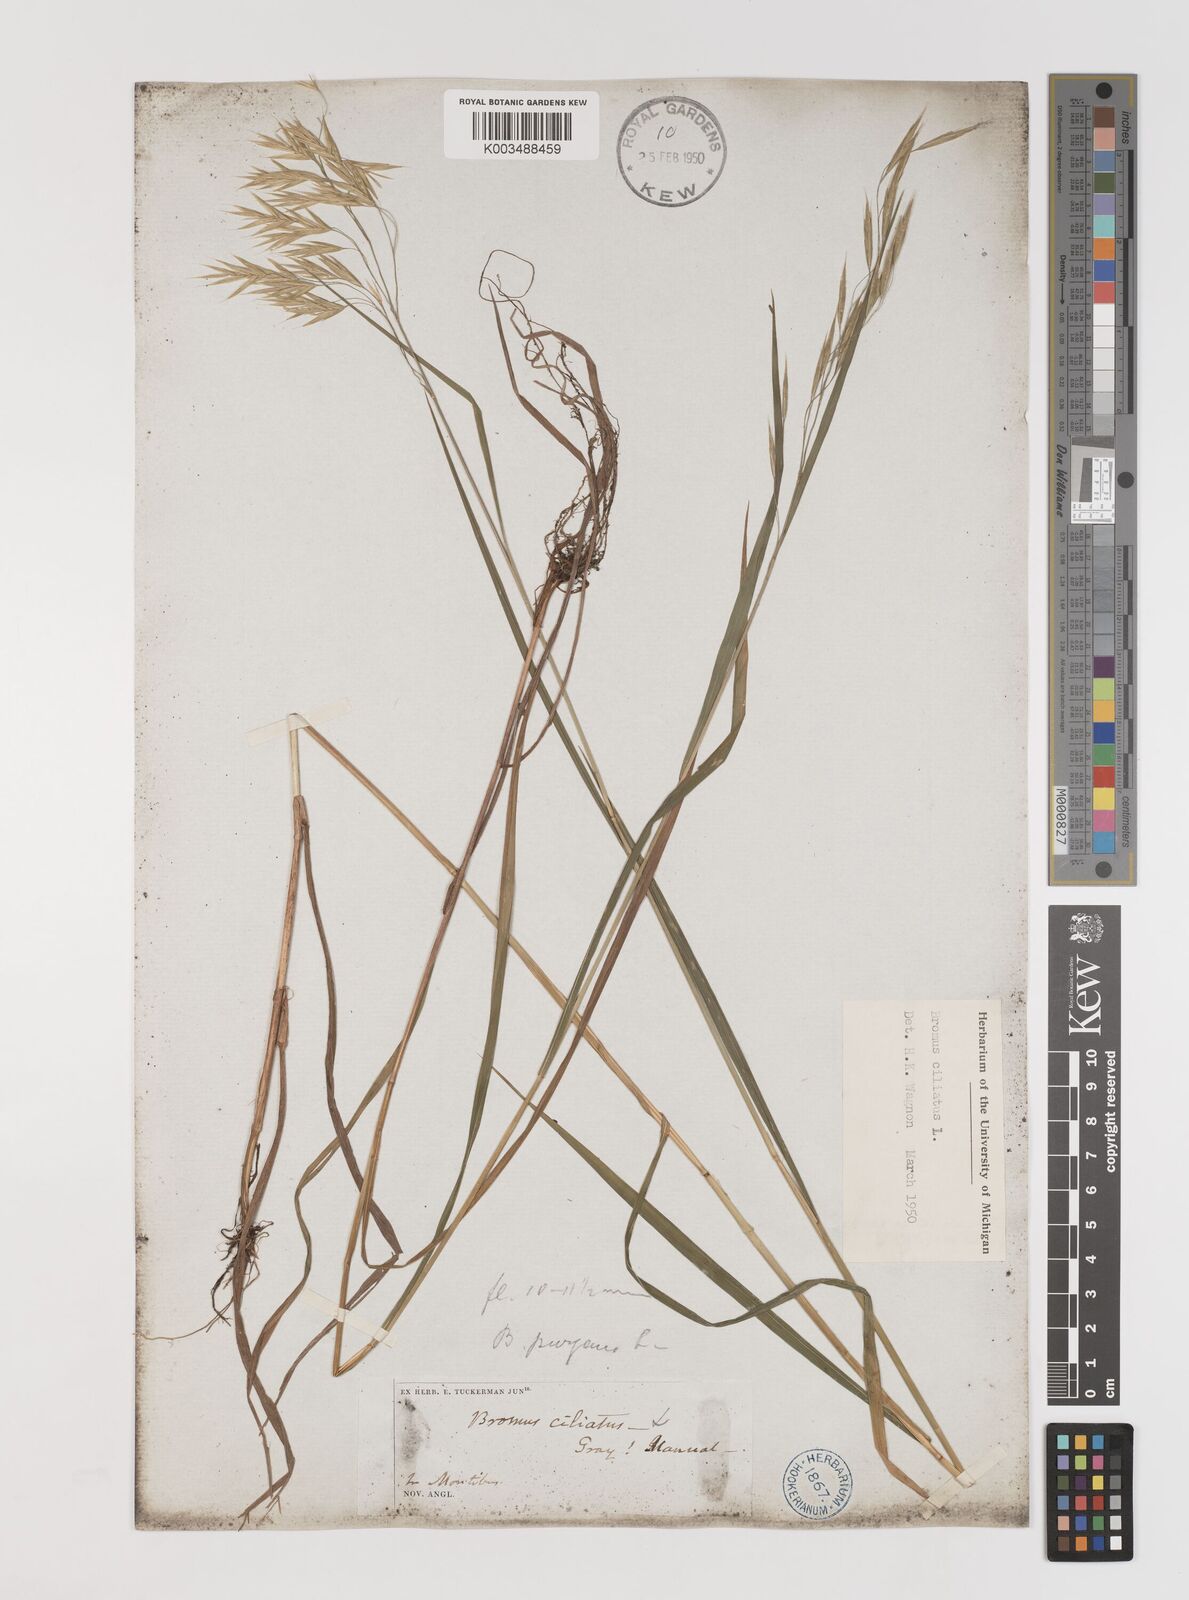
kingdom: Plantae
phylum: Tracheophyta
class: Liliopsida
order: Poales
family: Poaceae
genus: Bromus
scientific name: Bromus ciliatus
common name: Fringe brome
